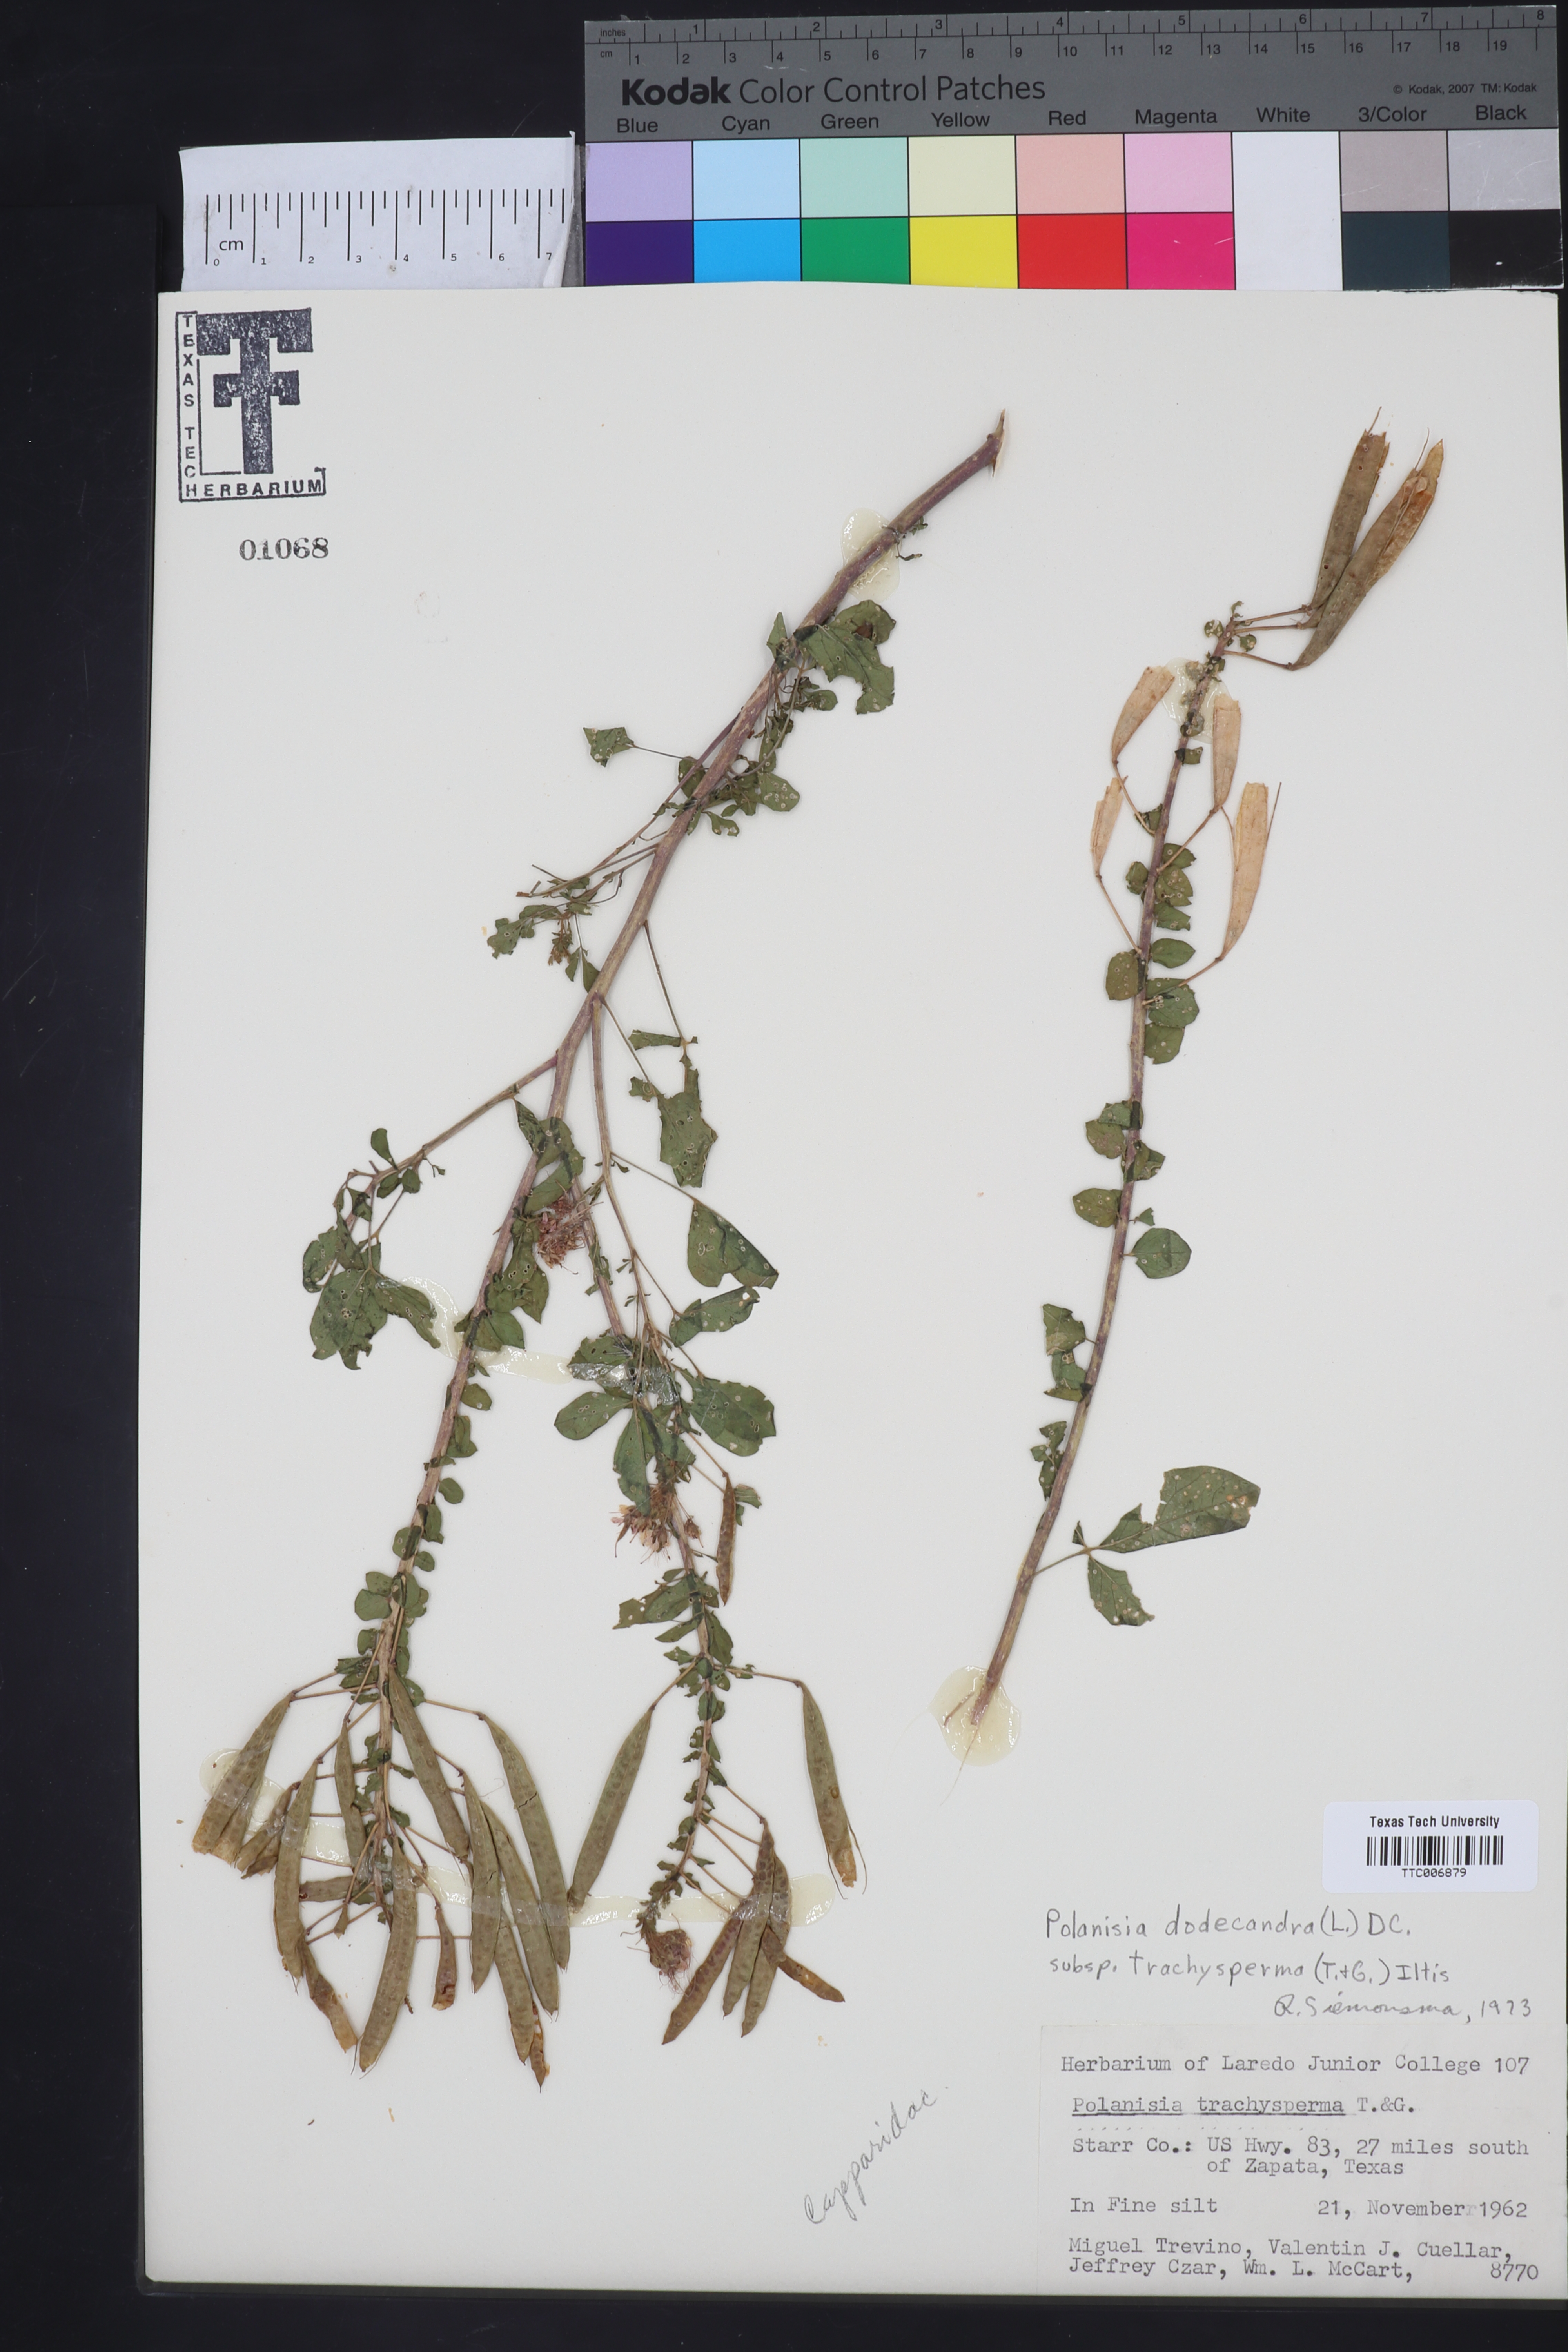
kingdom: Plantae
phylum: Tracheophyta
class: Magnoliopsida
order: Brassicales
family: Cleomaceae
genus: Polanisia
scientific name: Polanisia trachysperma
